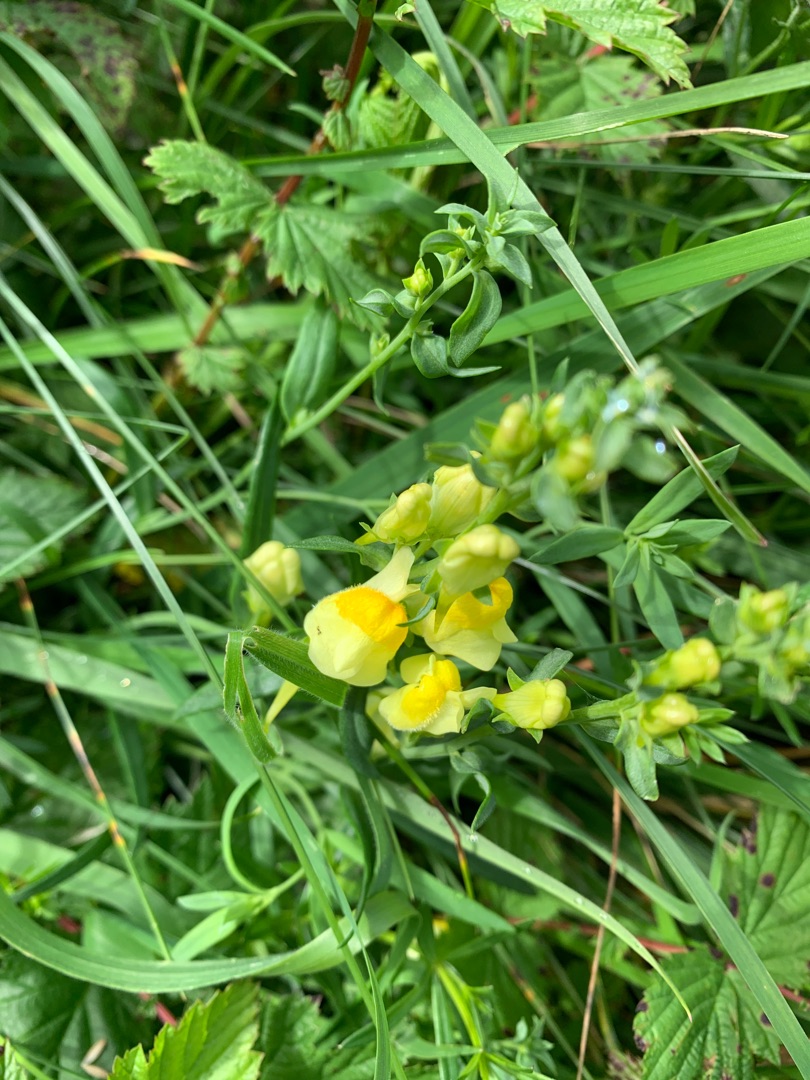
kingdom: Plantae
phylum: Tracheophyta
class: Magnoliopsida
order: Lamiales
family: Plantaginaceae
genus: Linaria
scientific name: Linaria vulgaris
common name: Almindelig torskemund
